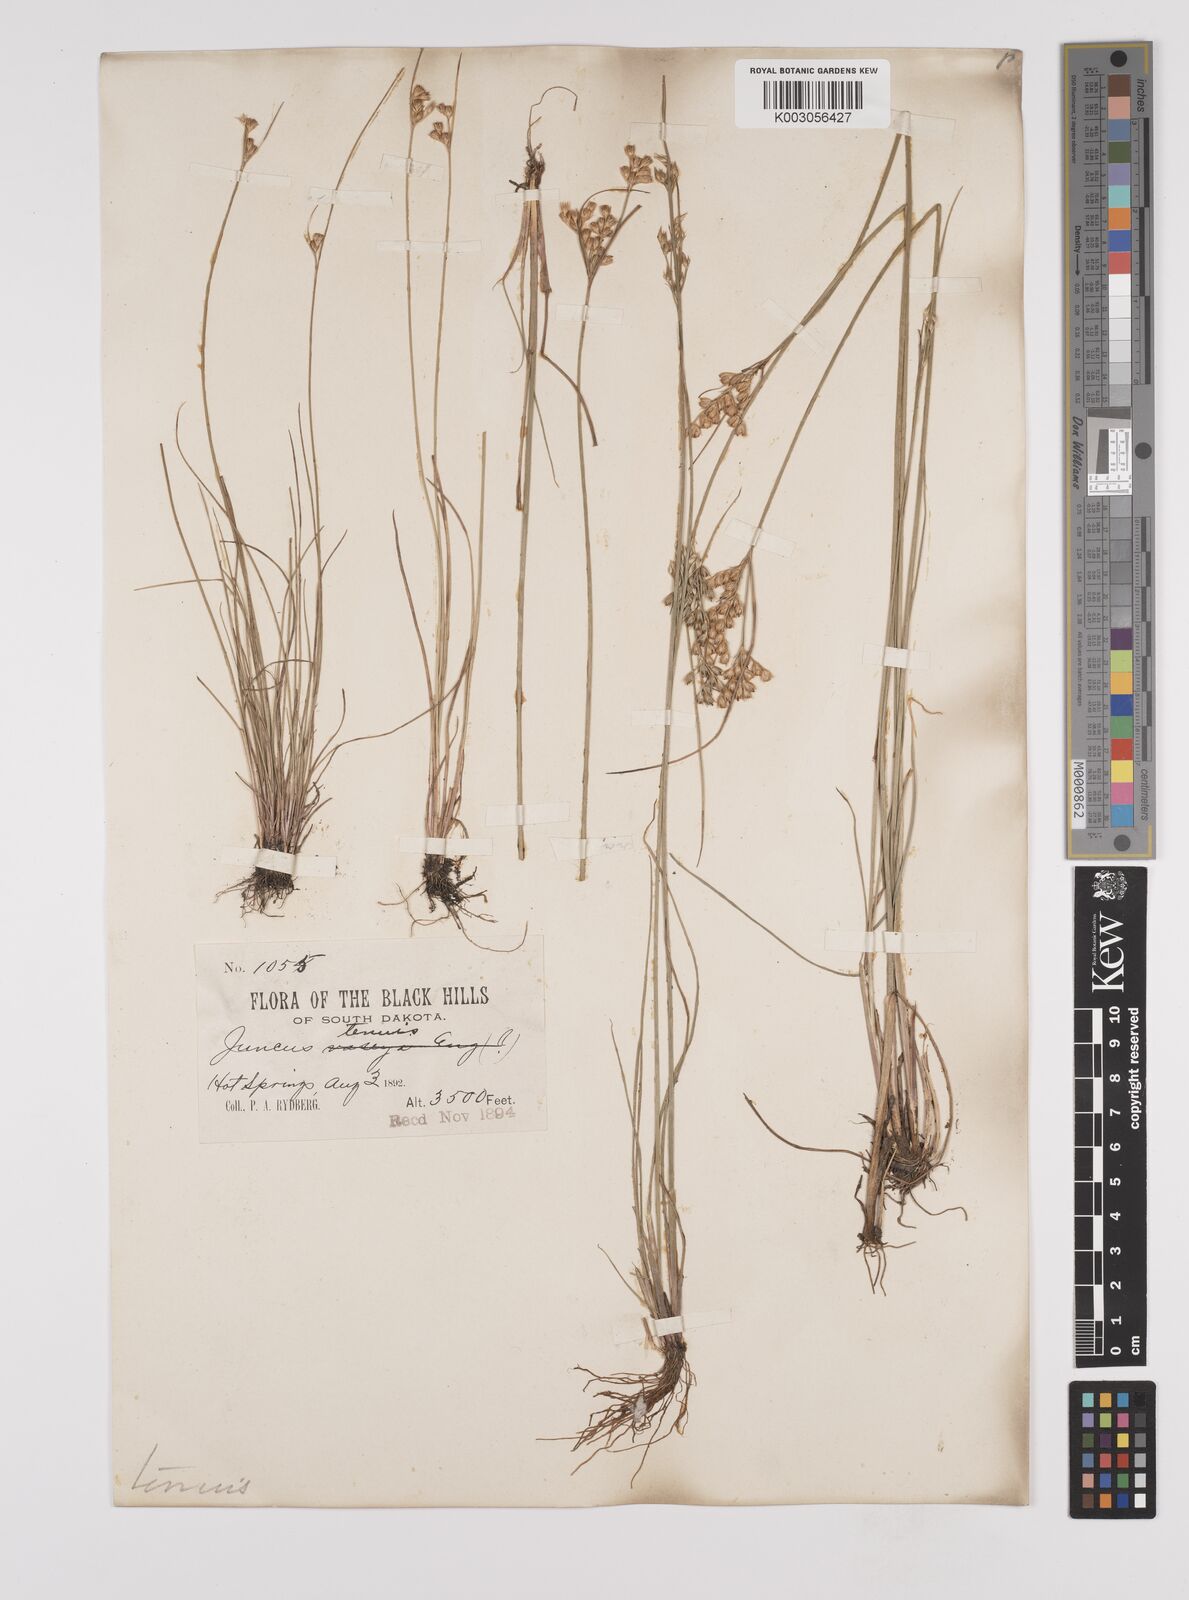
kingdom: Plantae
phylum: Tracheophyta
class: Liliopsida
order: Poales
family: Juncaceae
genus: Juncus
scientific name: Juncus tenuis
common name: Slender rush
